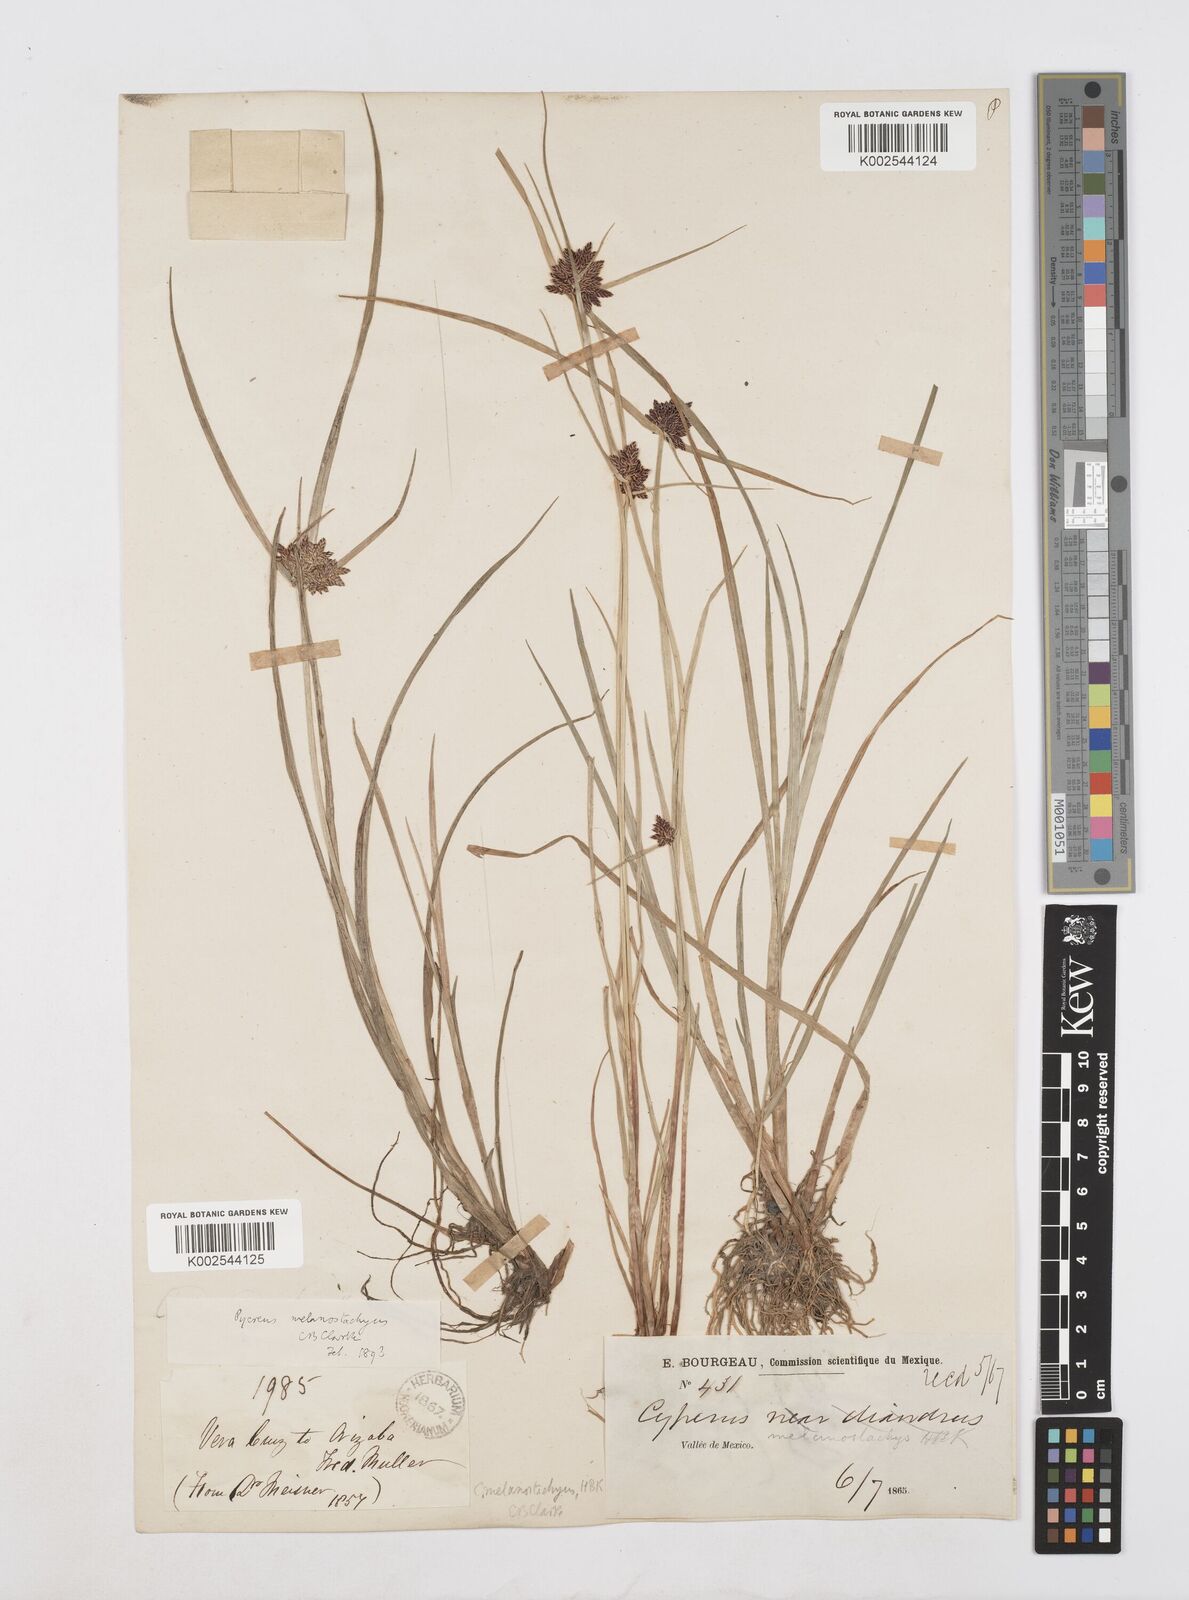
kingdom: Plantae
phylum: Tracheophyta
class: Liliopsida
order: Poales
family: Cyperaceae
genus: Cyperus
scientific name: Cyperus melanostachyus
